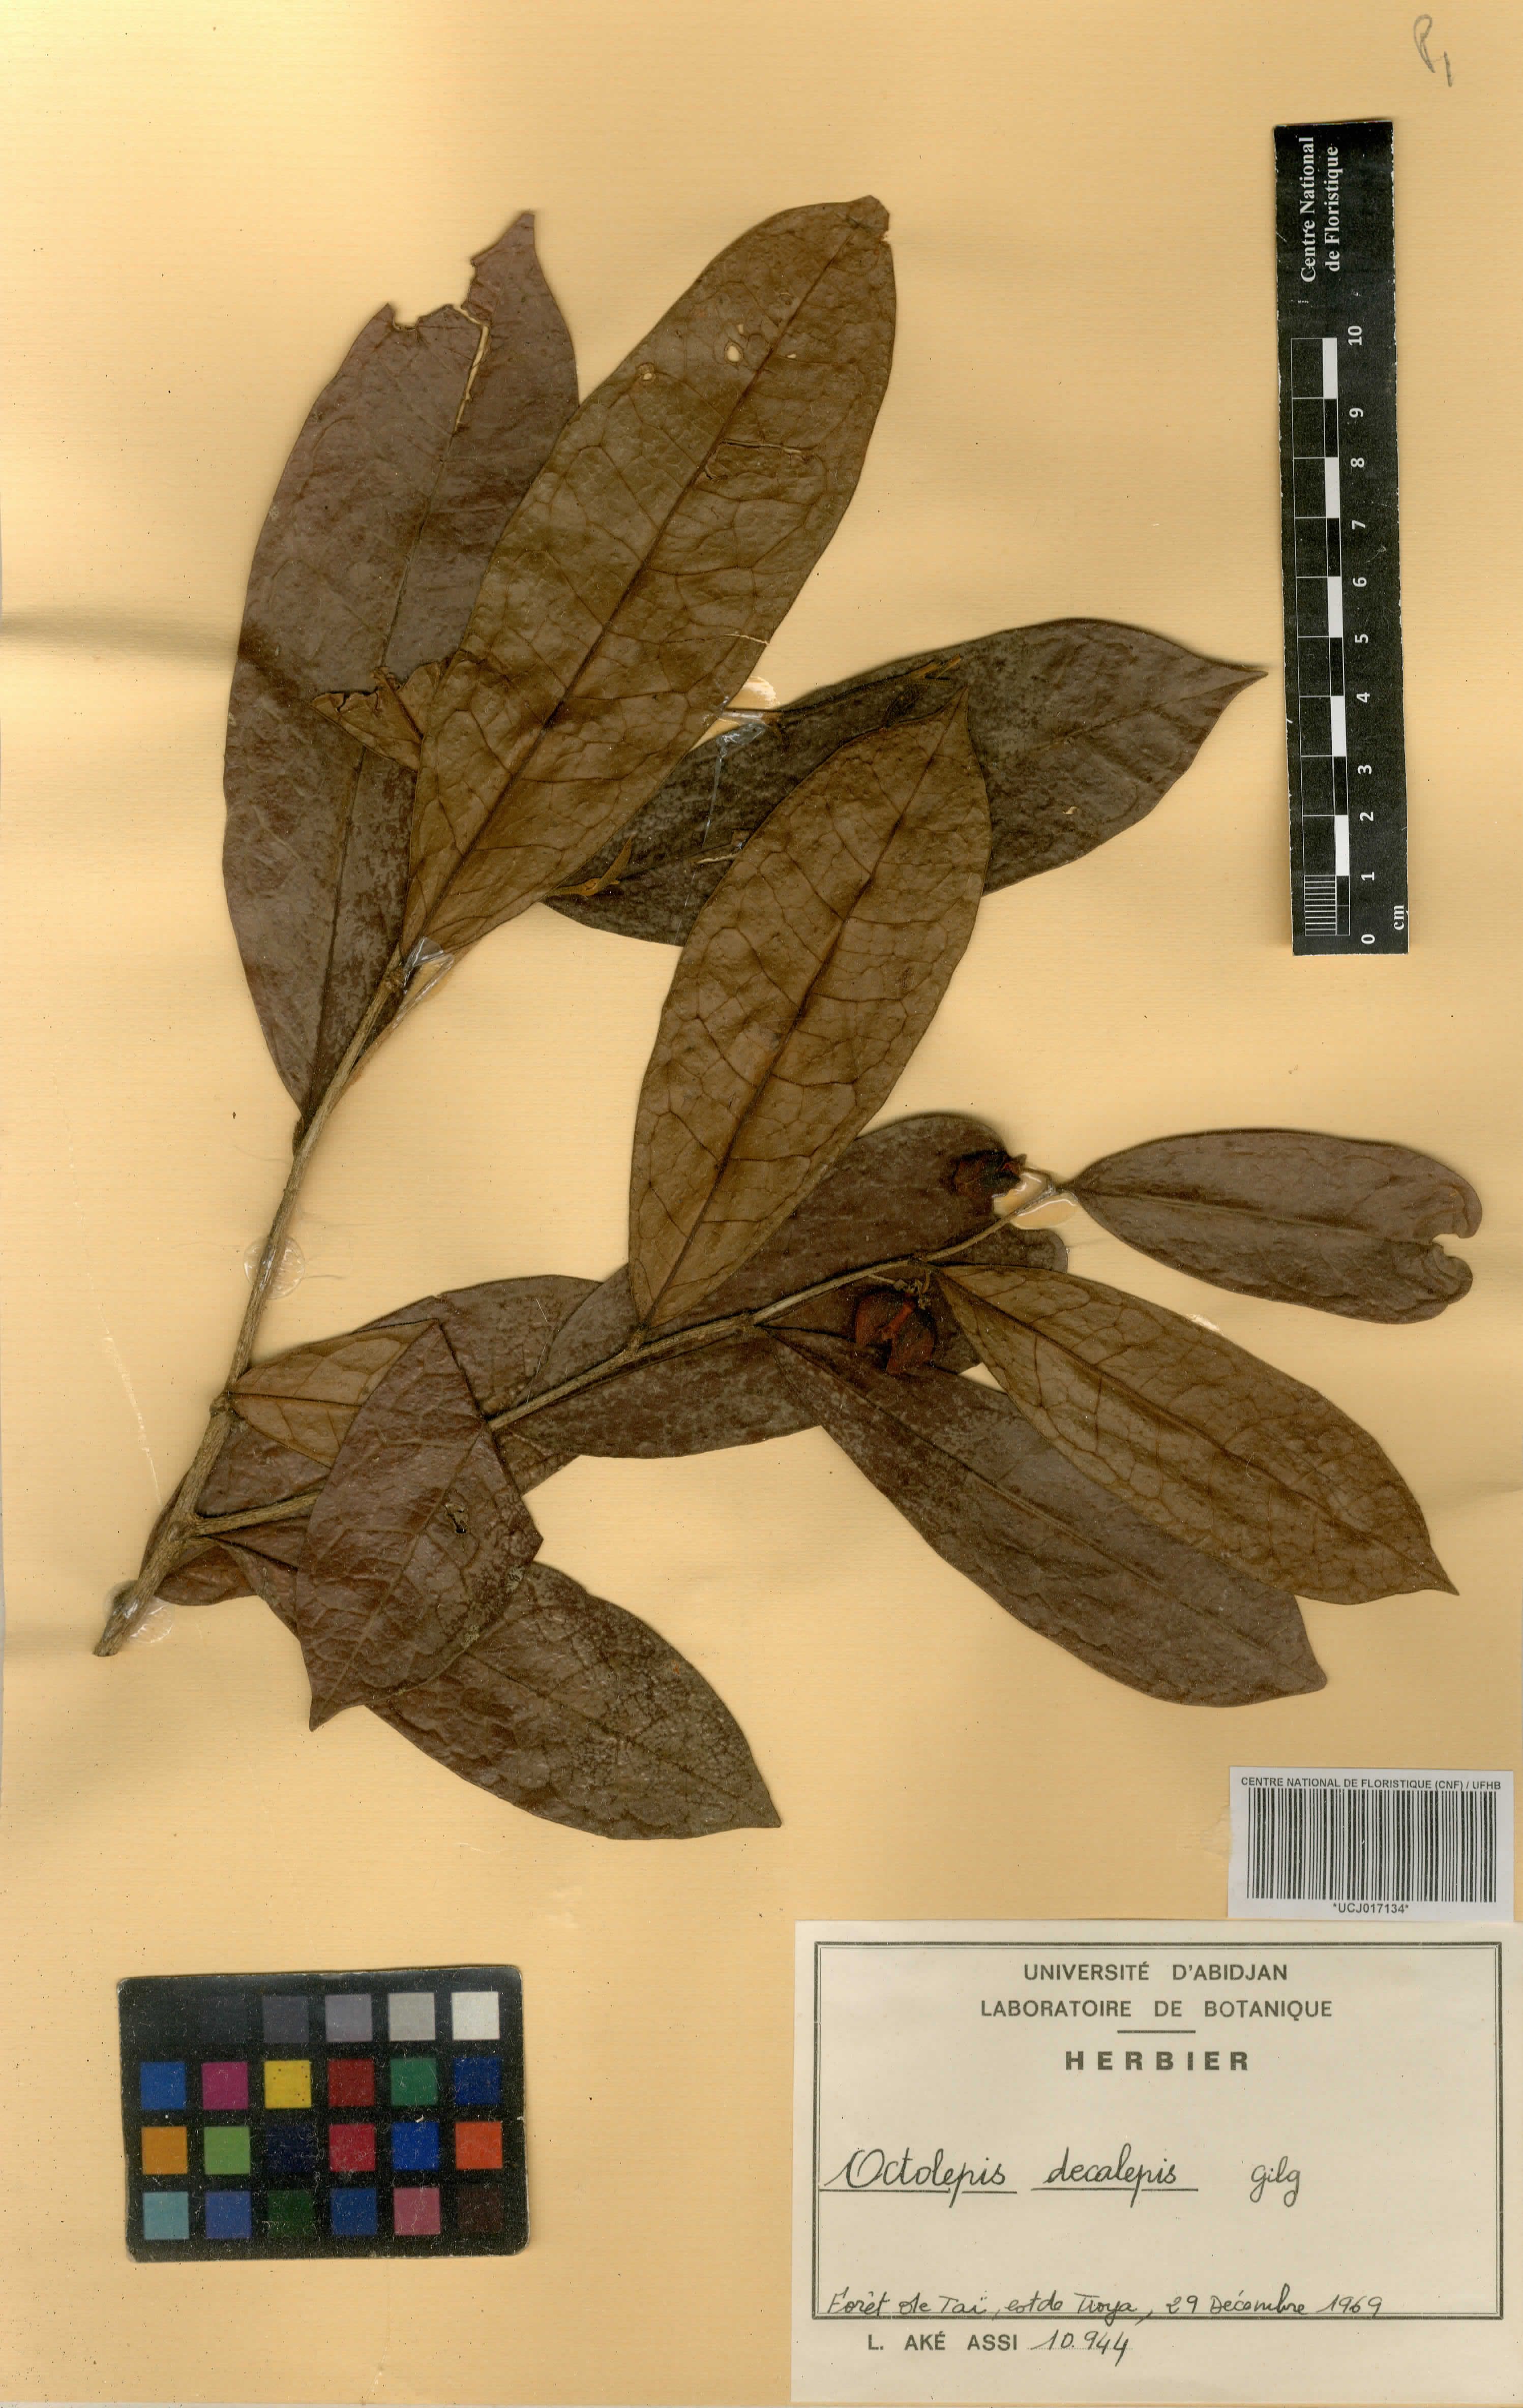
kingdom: Plantae
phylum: Tracheophyta
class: Magnoliopsida
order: Malvales
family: Thymelaeaceae
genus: Octolepis
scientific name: Octolepis decalepis
